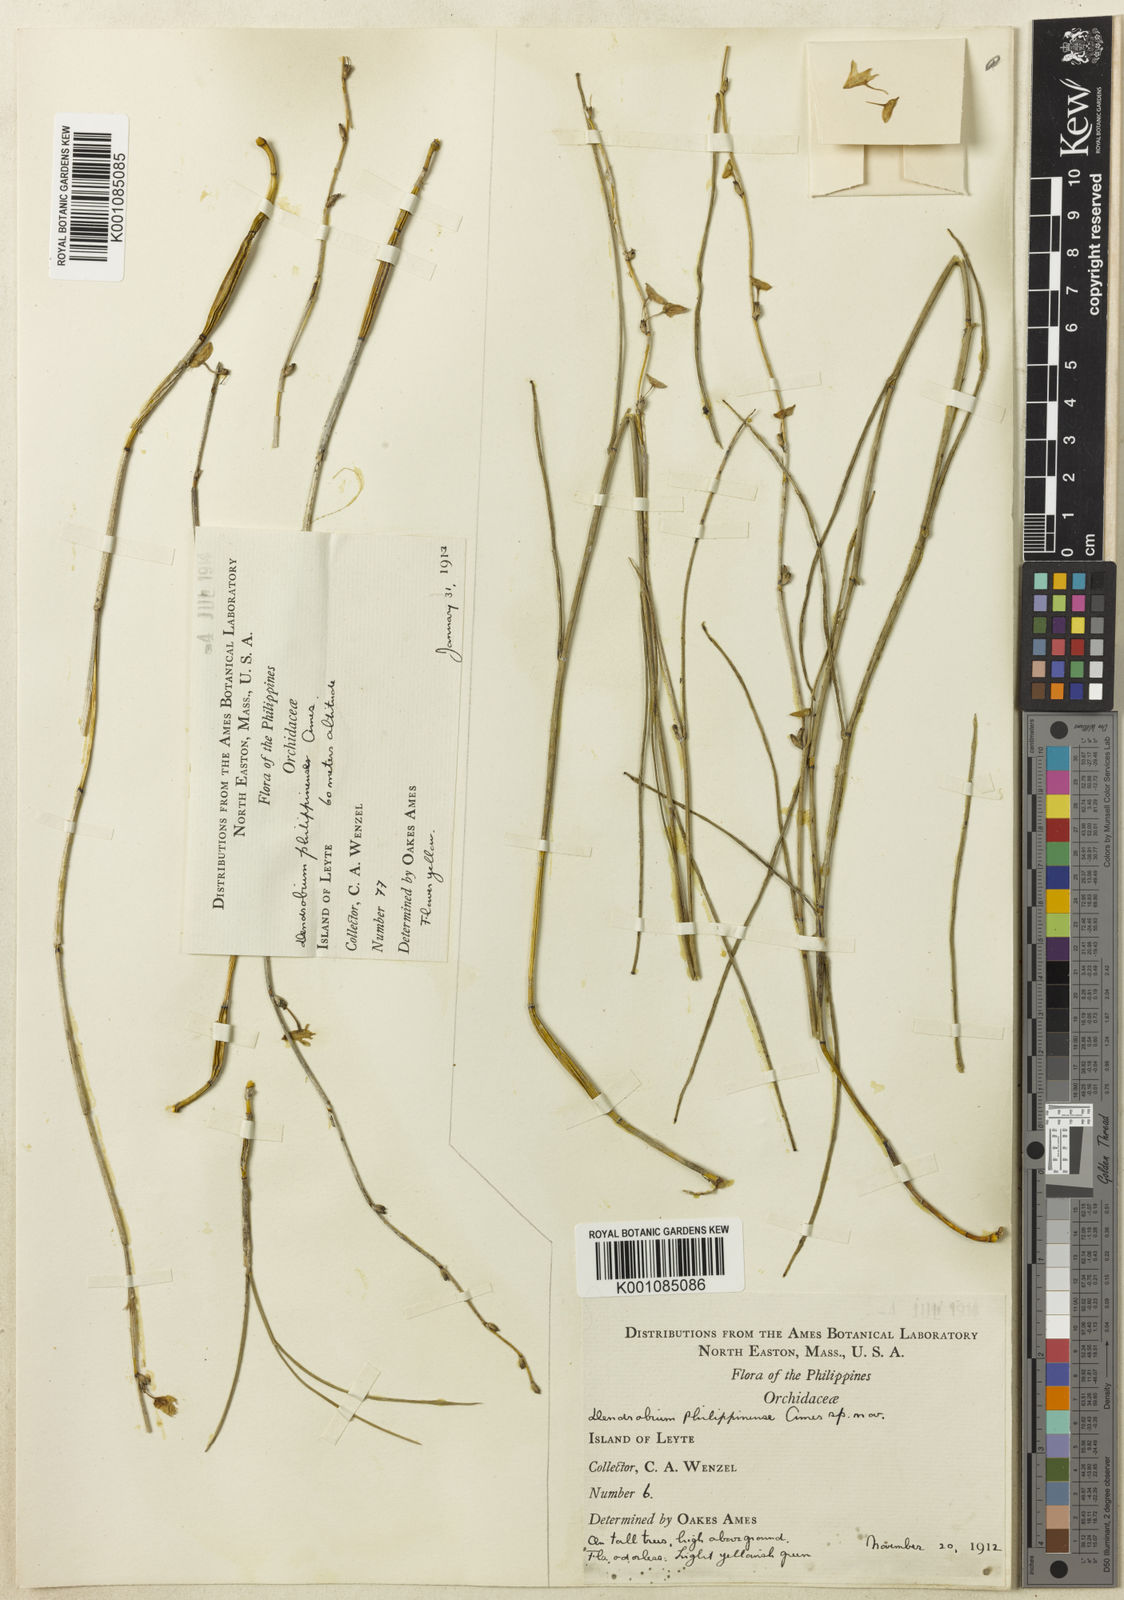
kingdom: Plantae
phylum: Tracheophyta
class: Liliopsida
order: Asparagales
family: Orchidaceae
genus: Dendrobium
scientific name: Dendrobium gerlandianum
